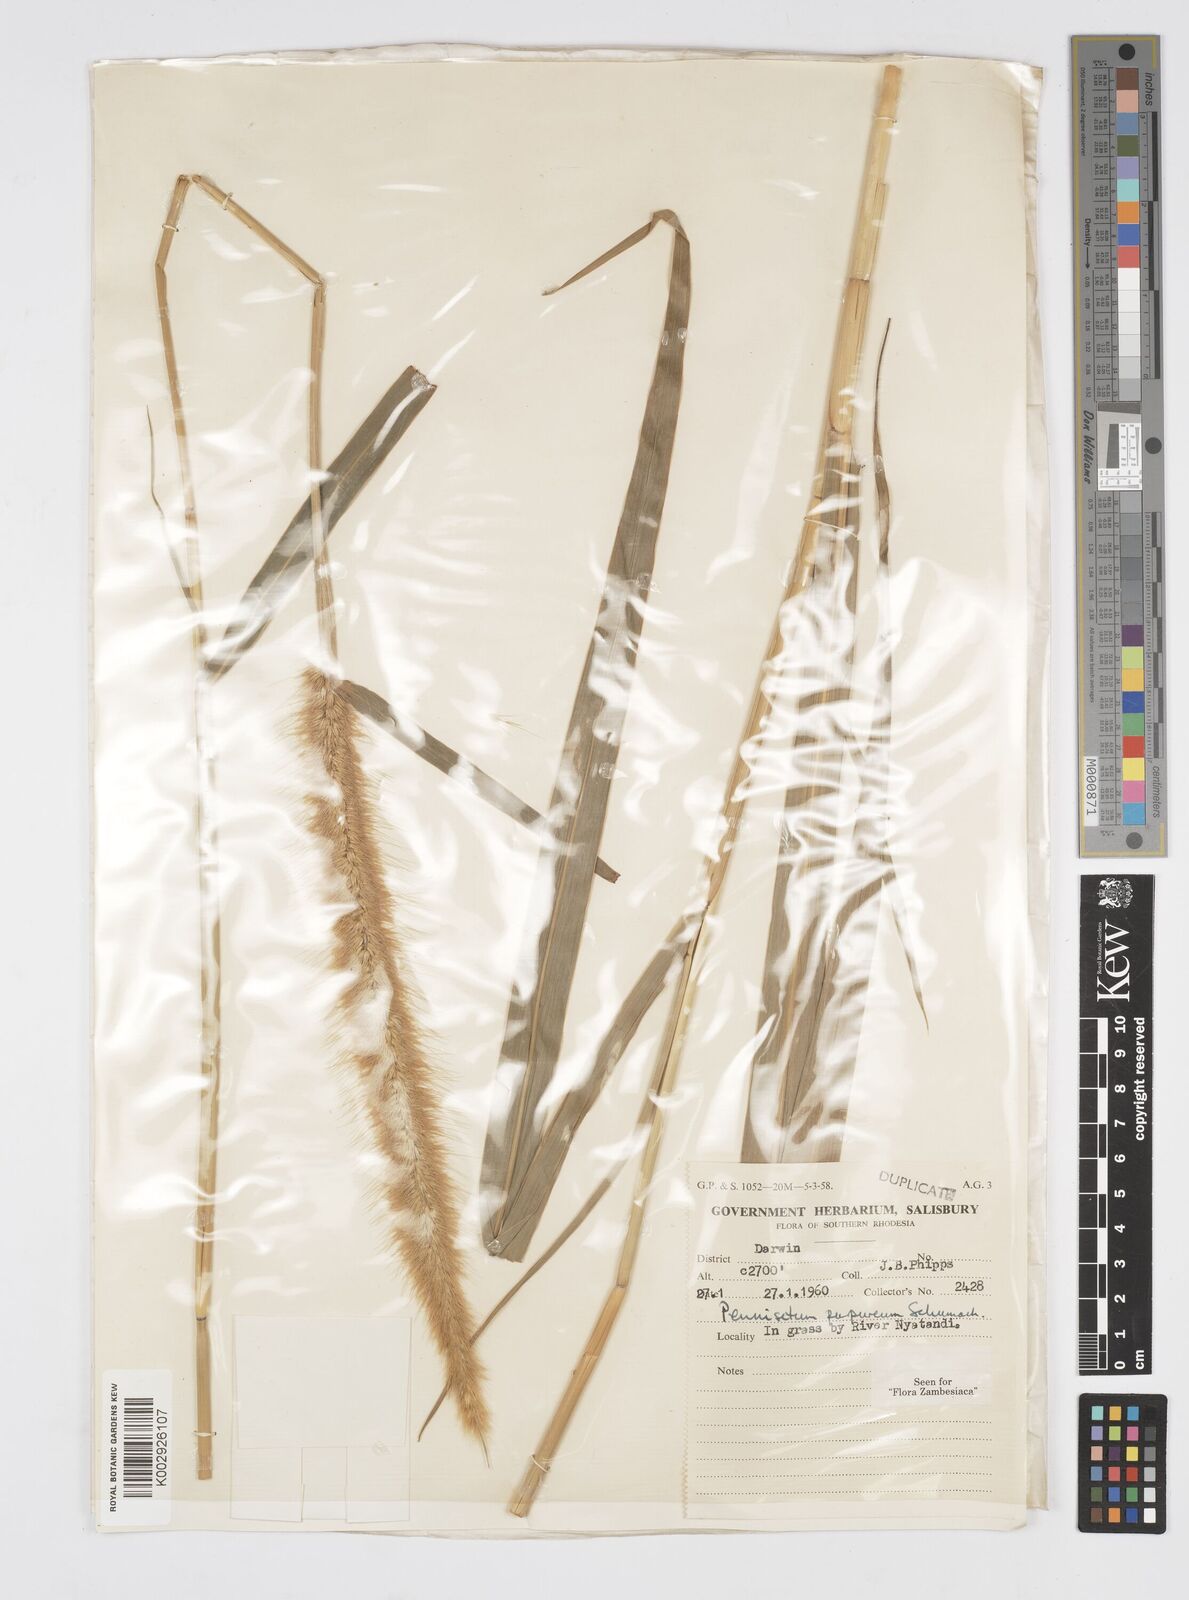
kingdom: Plantae
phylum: Tracheophyta
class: Liliopsida
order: Poales
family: Poaceae
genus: Cenchrus
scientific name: Cenchrus purpureus
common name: Elephant grass
